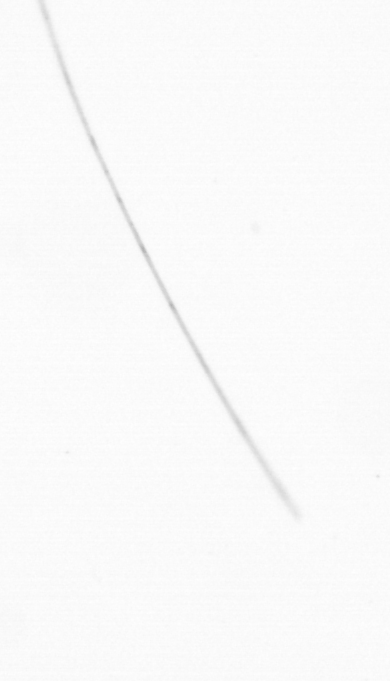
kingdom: Chromista
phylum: Ochrophyta
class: Bacillariophyceae
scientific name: Bacillariophyceae
